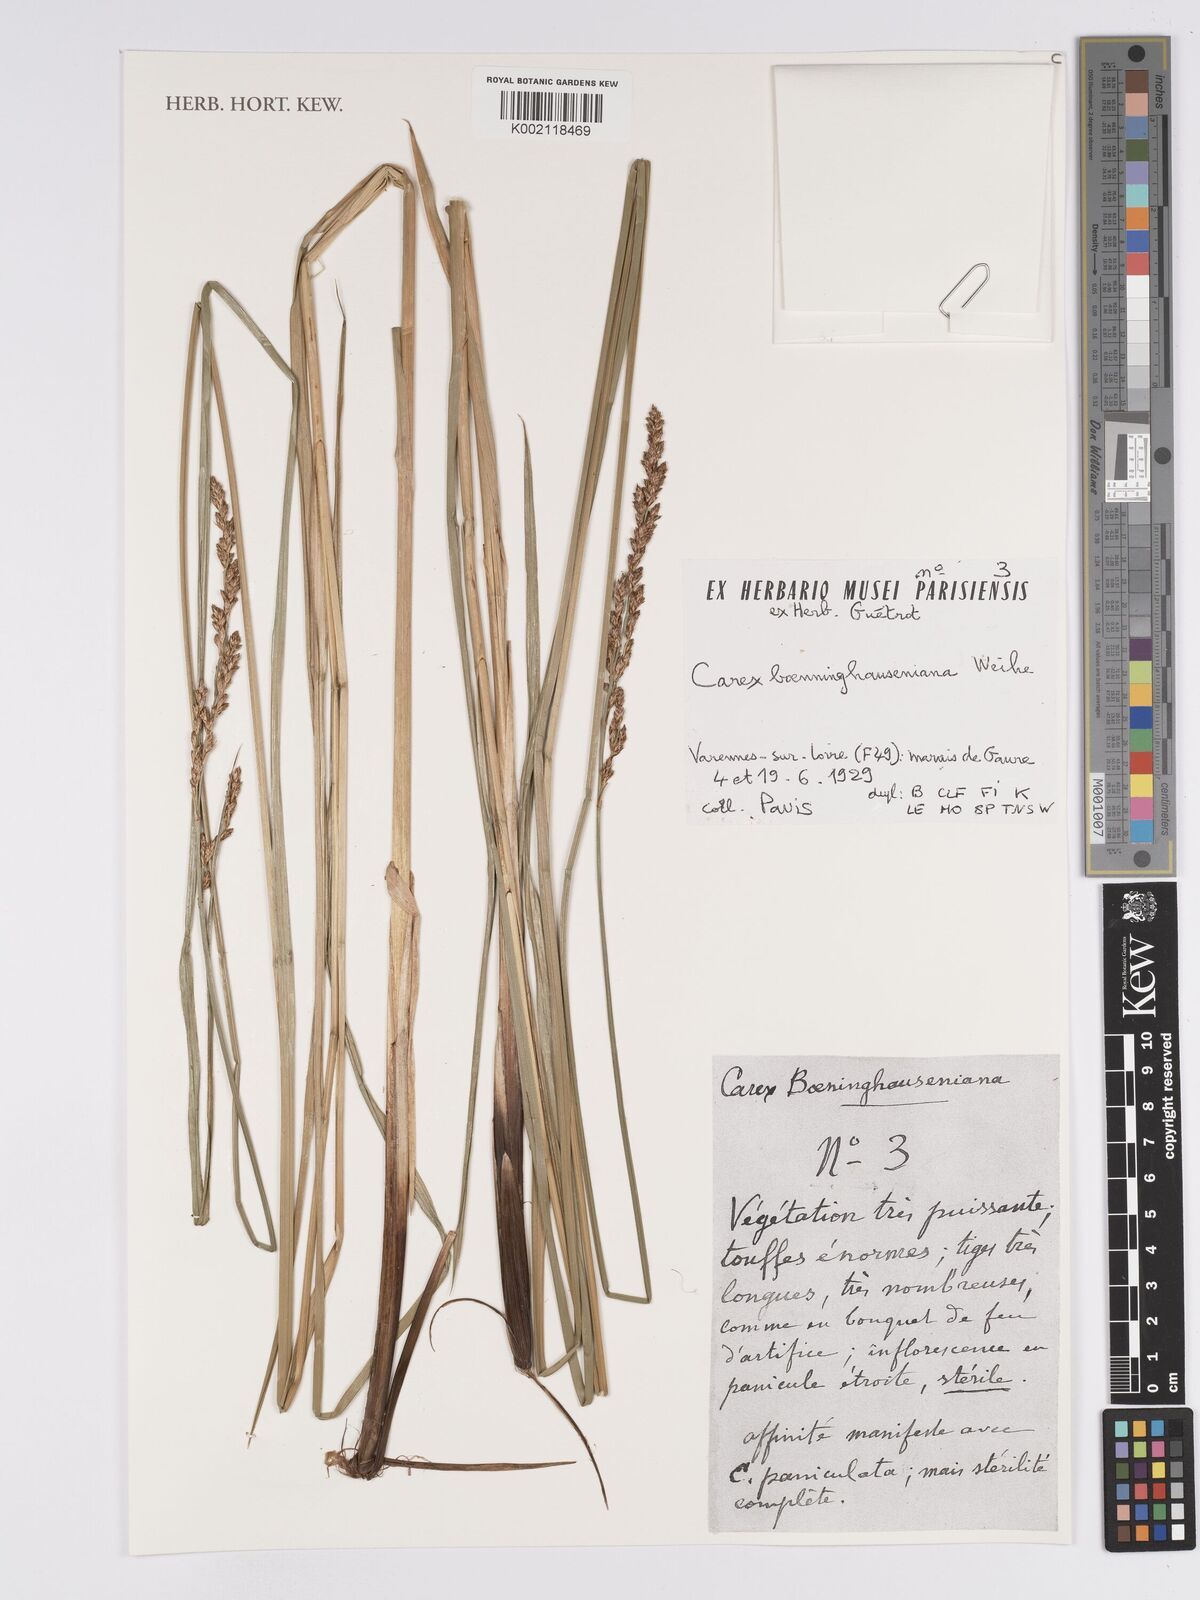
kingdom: Plantae
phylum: Tracheophyta
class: Liliopsida
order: Poales
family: Cyperaceae
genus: Carex
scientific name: Carex boenninghausiana
